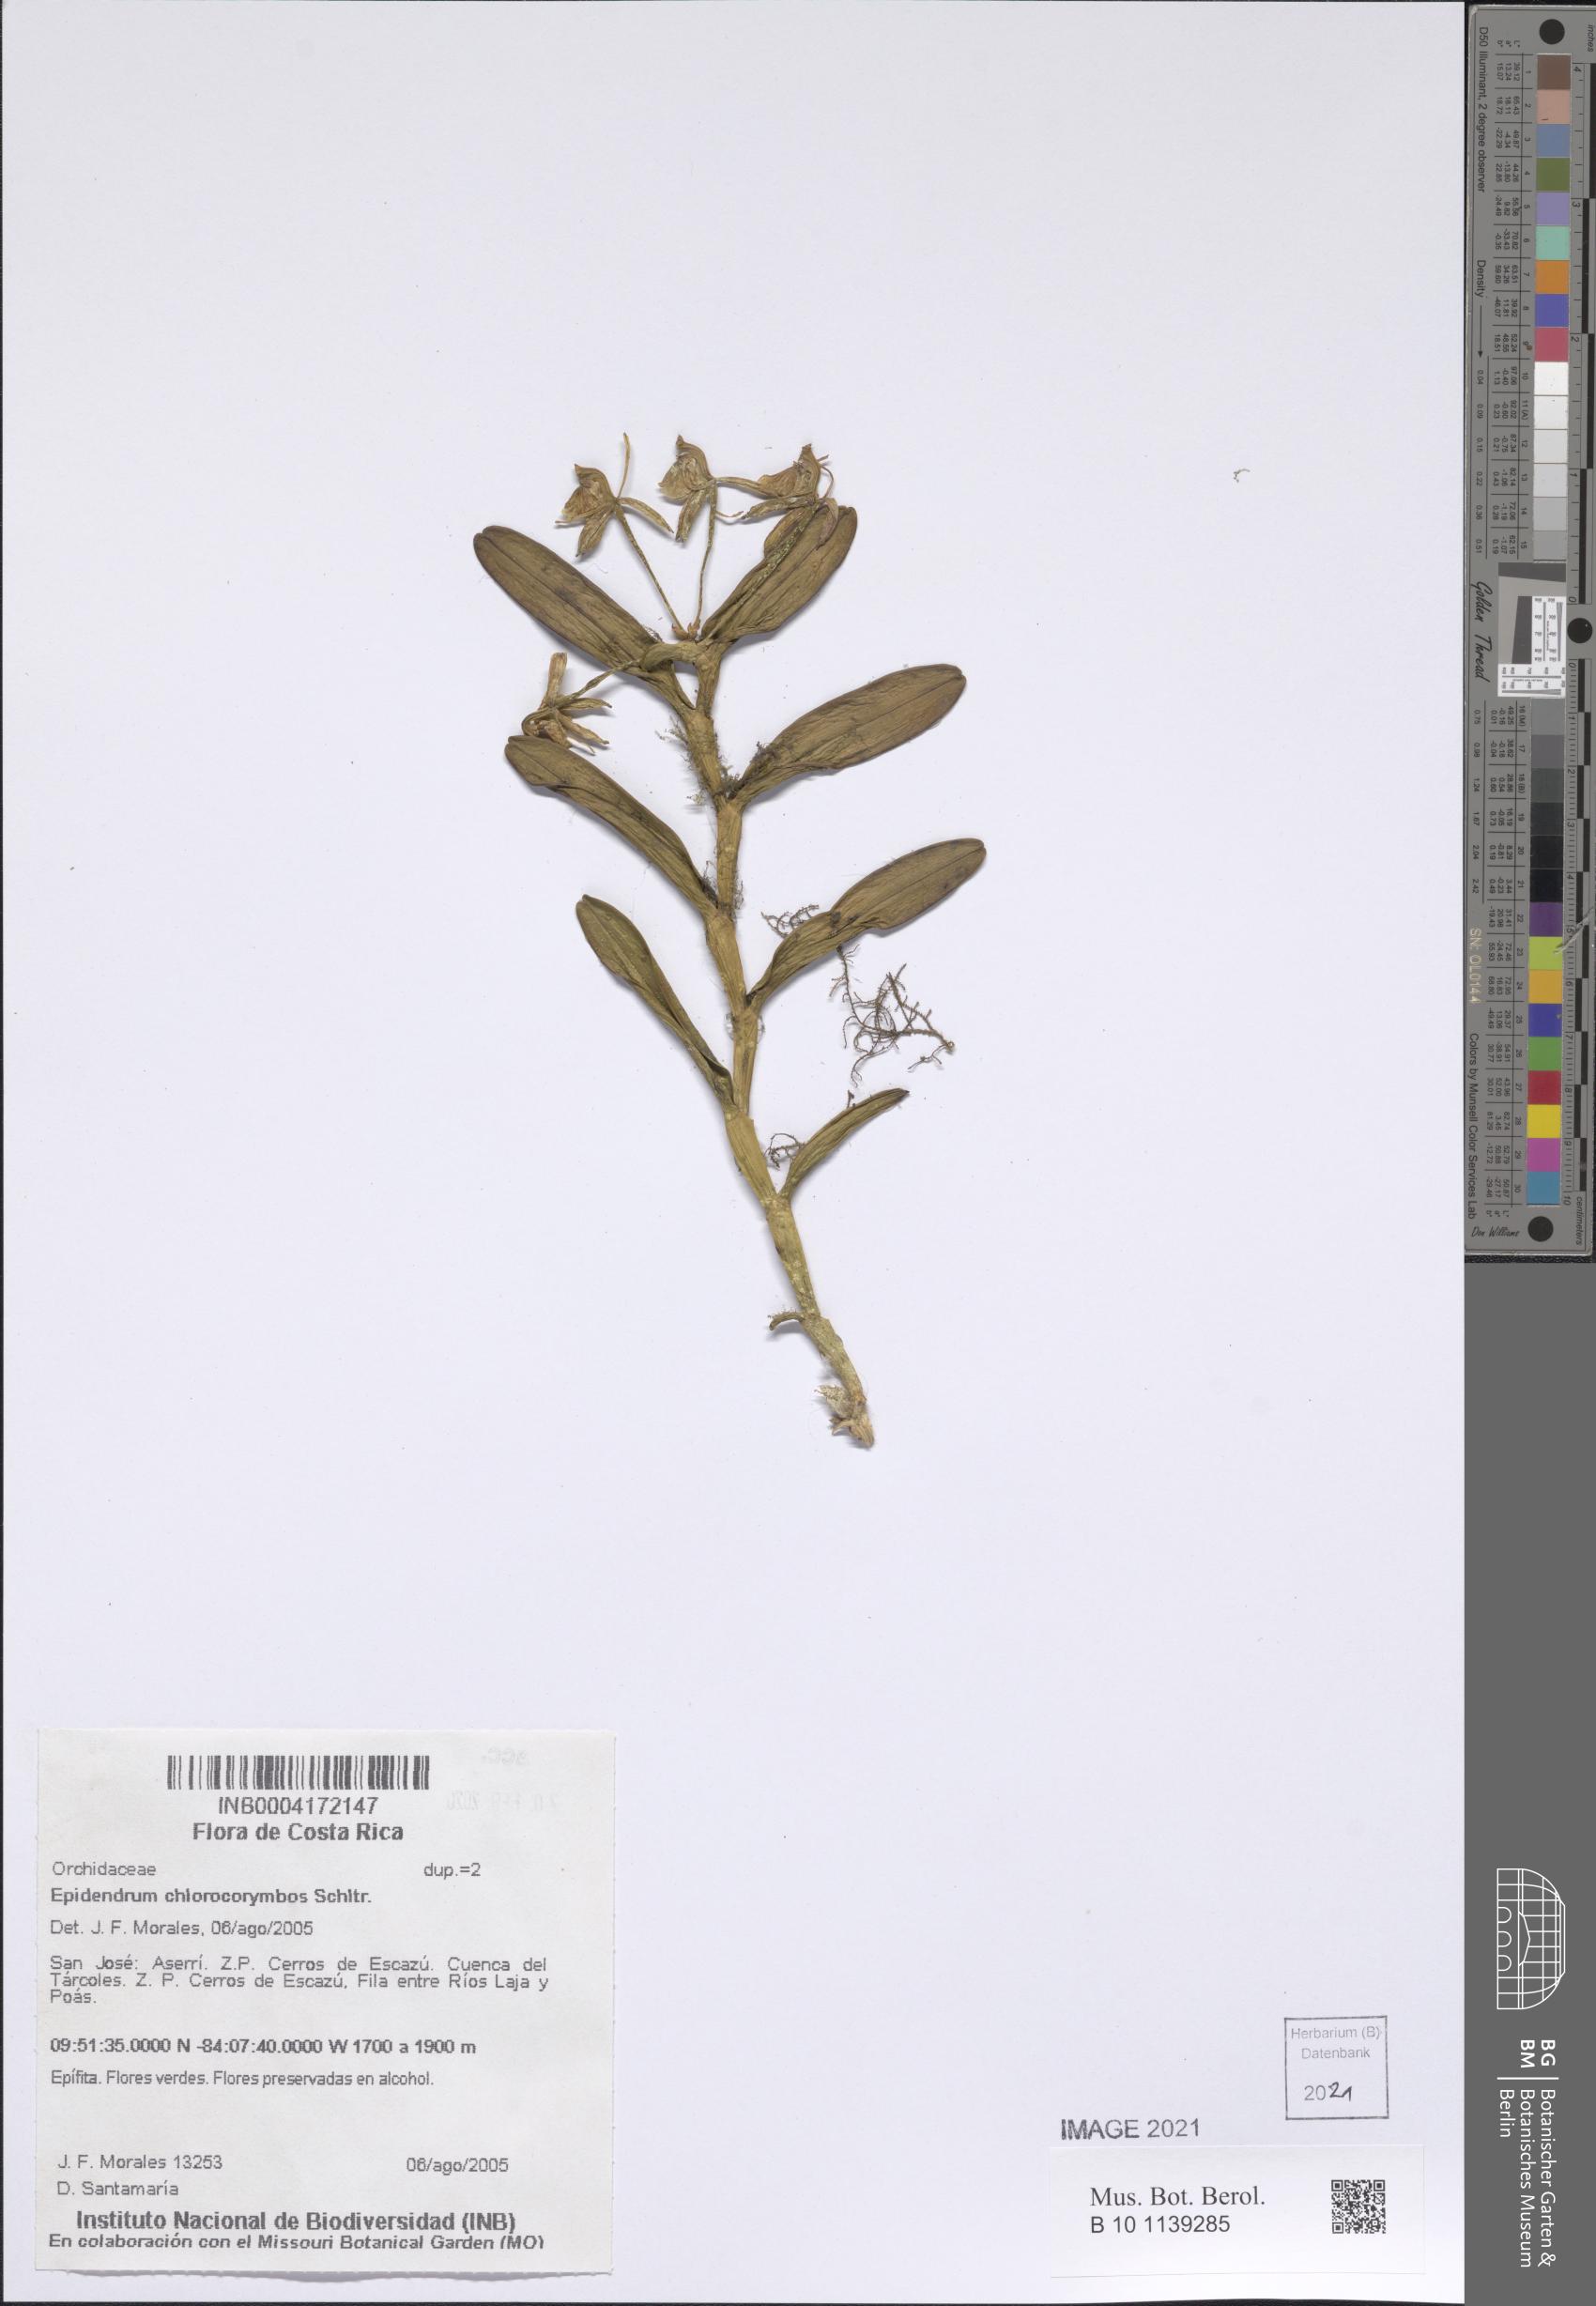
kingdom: Plantae
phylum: Tracheophyta
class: Liliopsida
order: Asparagales
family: Orchidaceae
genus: Epidendrum
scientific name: Epidendrum chlorocorymbos
